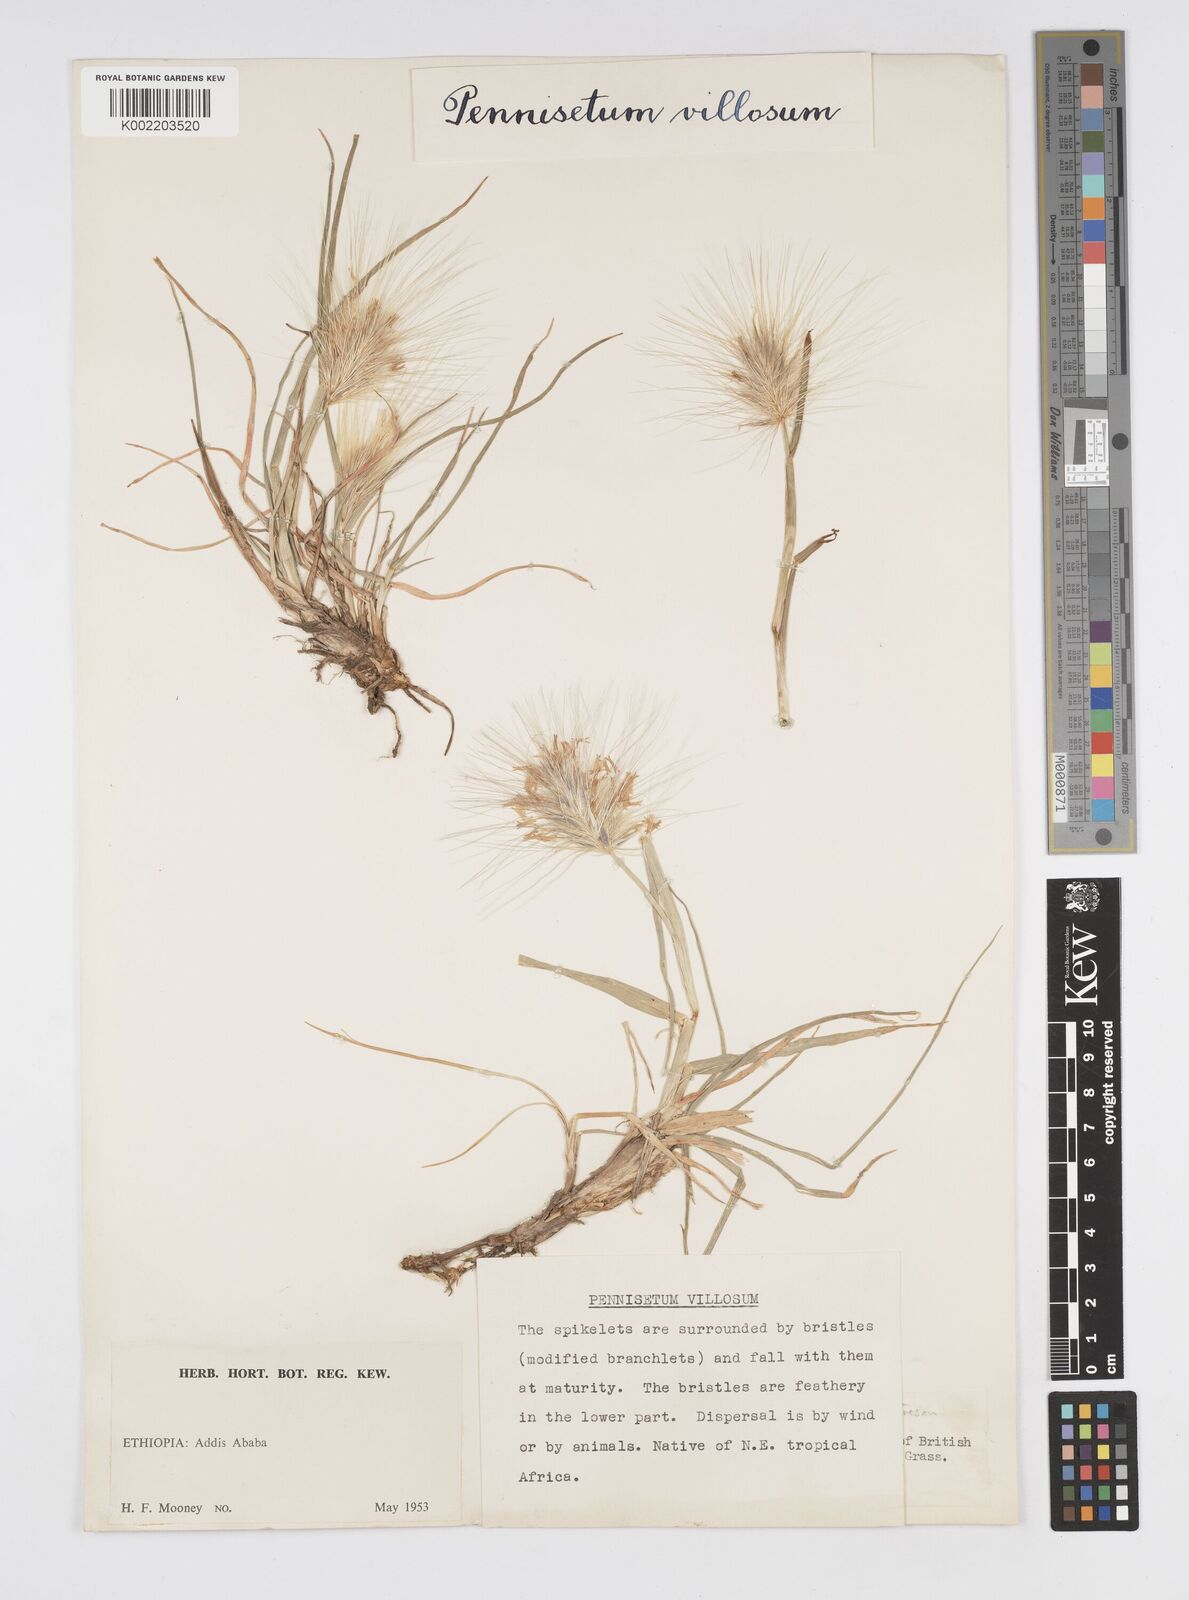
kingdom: Plantae
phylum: Tracheophyta
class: Liliopsida
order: Poales
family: Poaceae
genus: Cenchrus
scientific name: Cenchrus longisetus
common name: Feathertop
